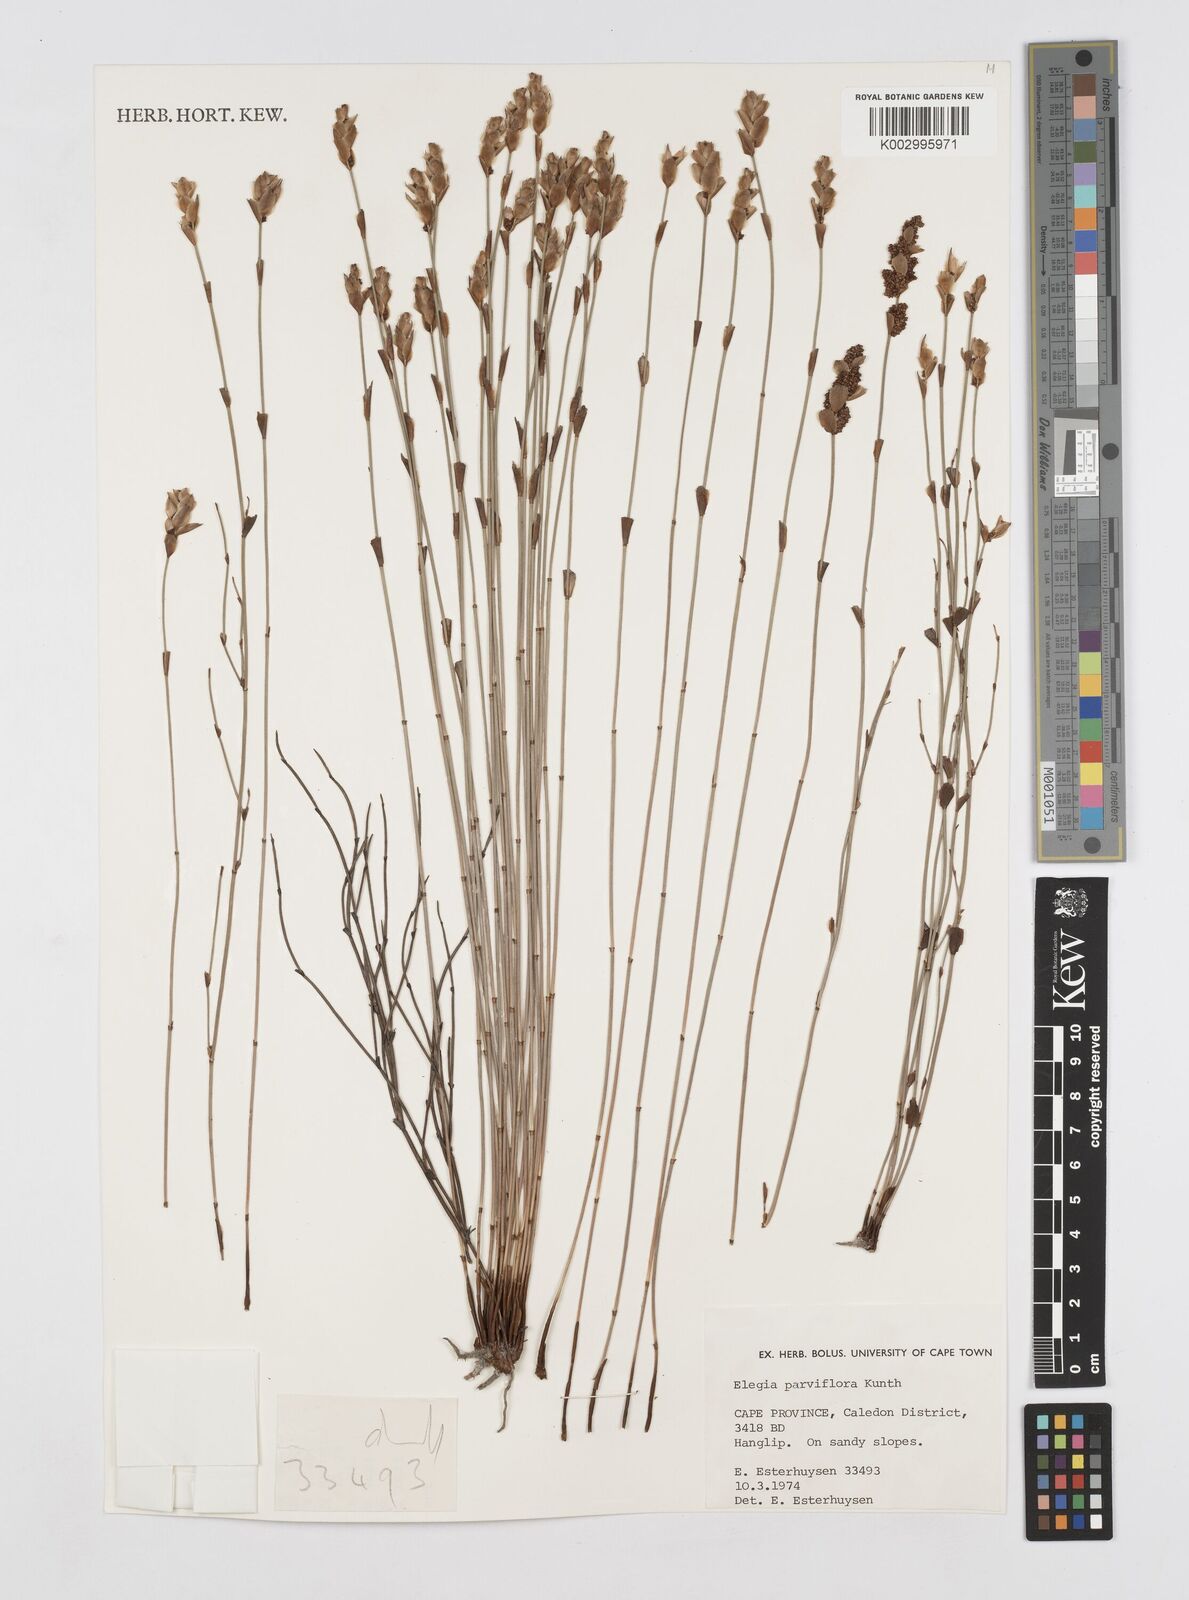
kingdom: Plantae
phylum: Tracheophyta
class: Liliopsida
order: Poales
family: Restionaceae
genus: Cannomois
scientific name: Cannomois parviflora
